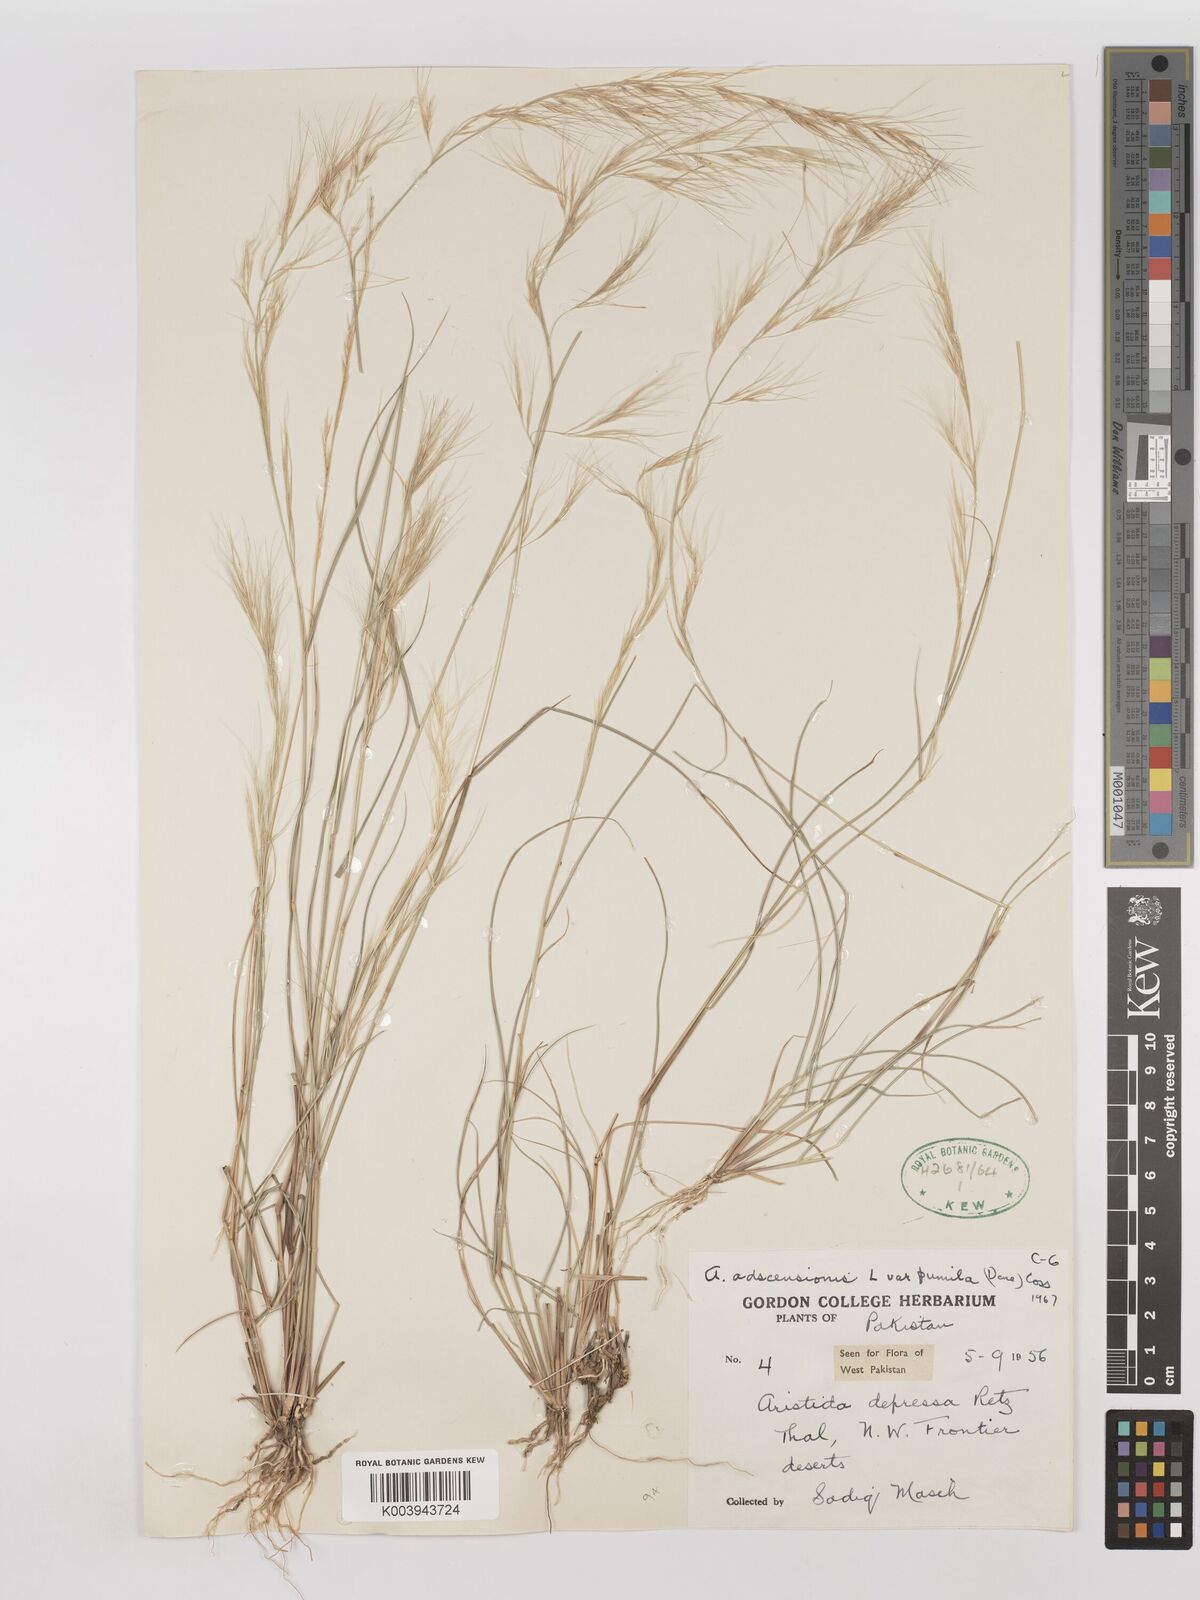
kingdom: Plantae
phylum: Tracheophyta
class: Liliopsida
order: Poales
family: Poaceae
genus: Aristida
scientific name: Aristida adscensionis
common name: Sixweeks threeawn
